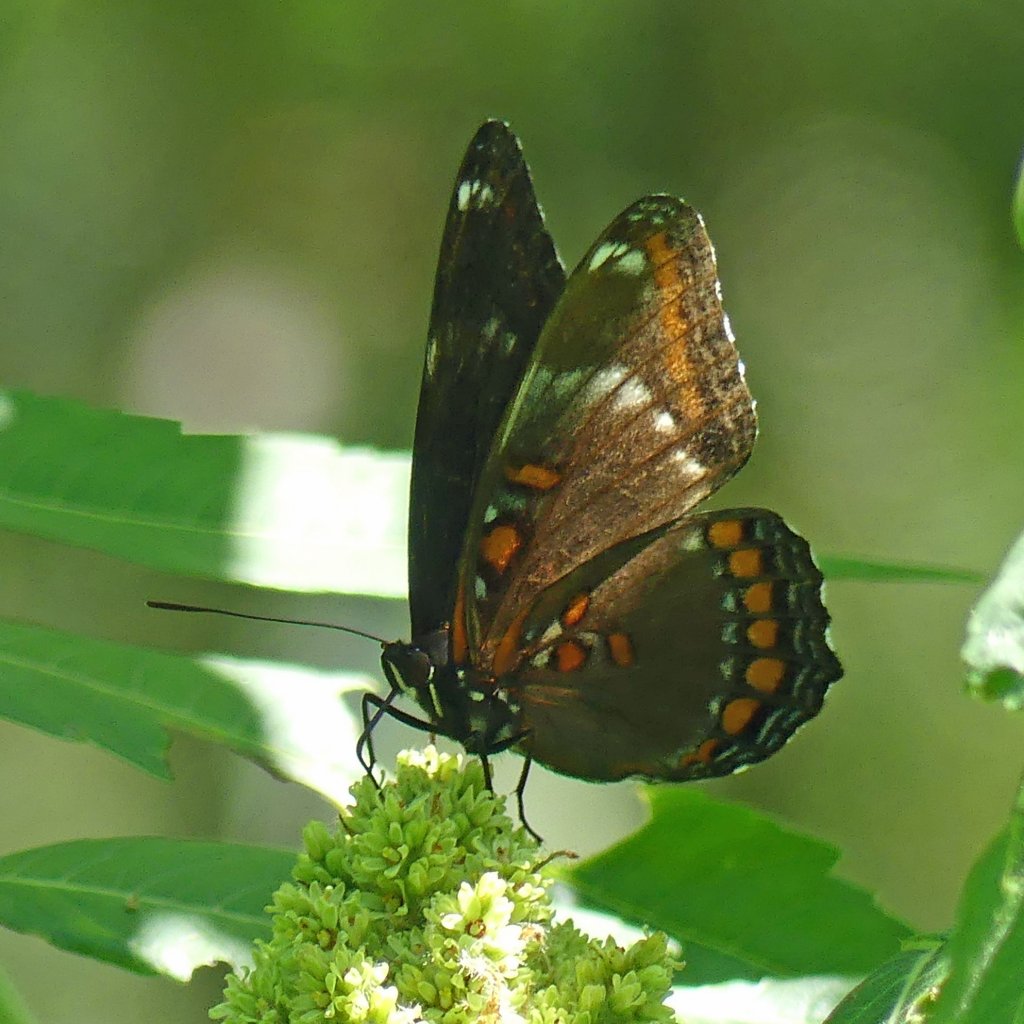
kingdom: Animalia
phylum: Arthropoda
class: Insecta
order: Lepidoptera
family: Nymphalidae
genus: Limenitis
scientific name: Limenitis
